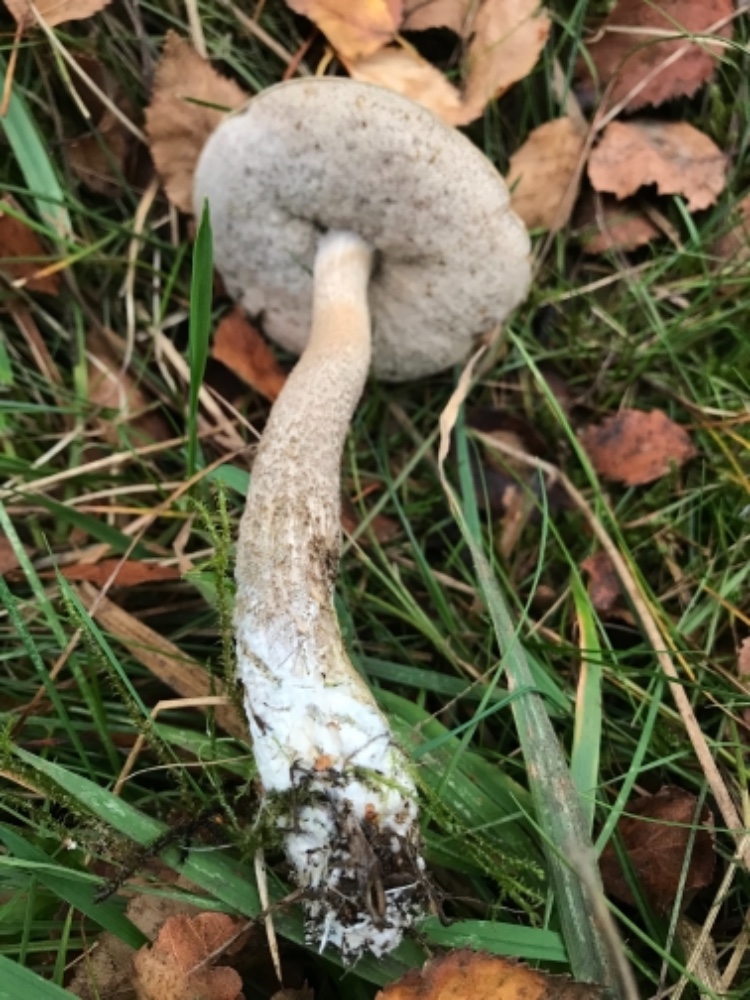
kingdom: Fungi
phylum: Basidiomycota
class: Agaricomycetes
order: Boletales
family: Boletaceae
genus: Leccinum
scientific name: Leccinum
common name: skælrørhat
